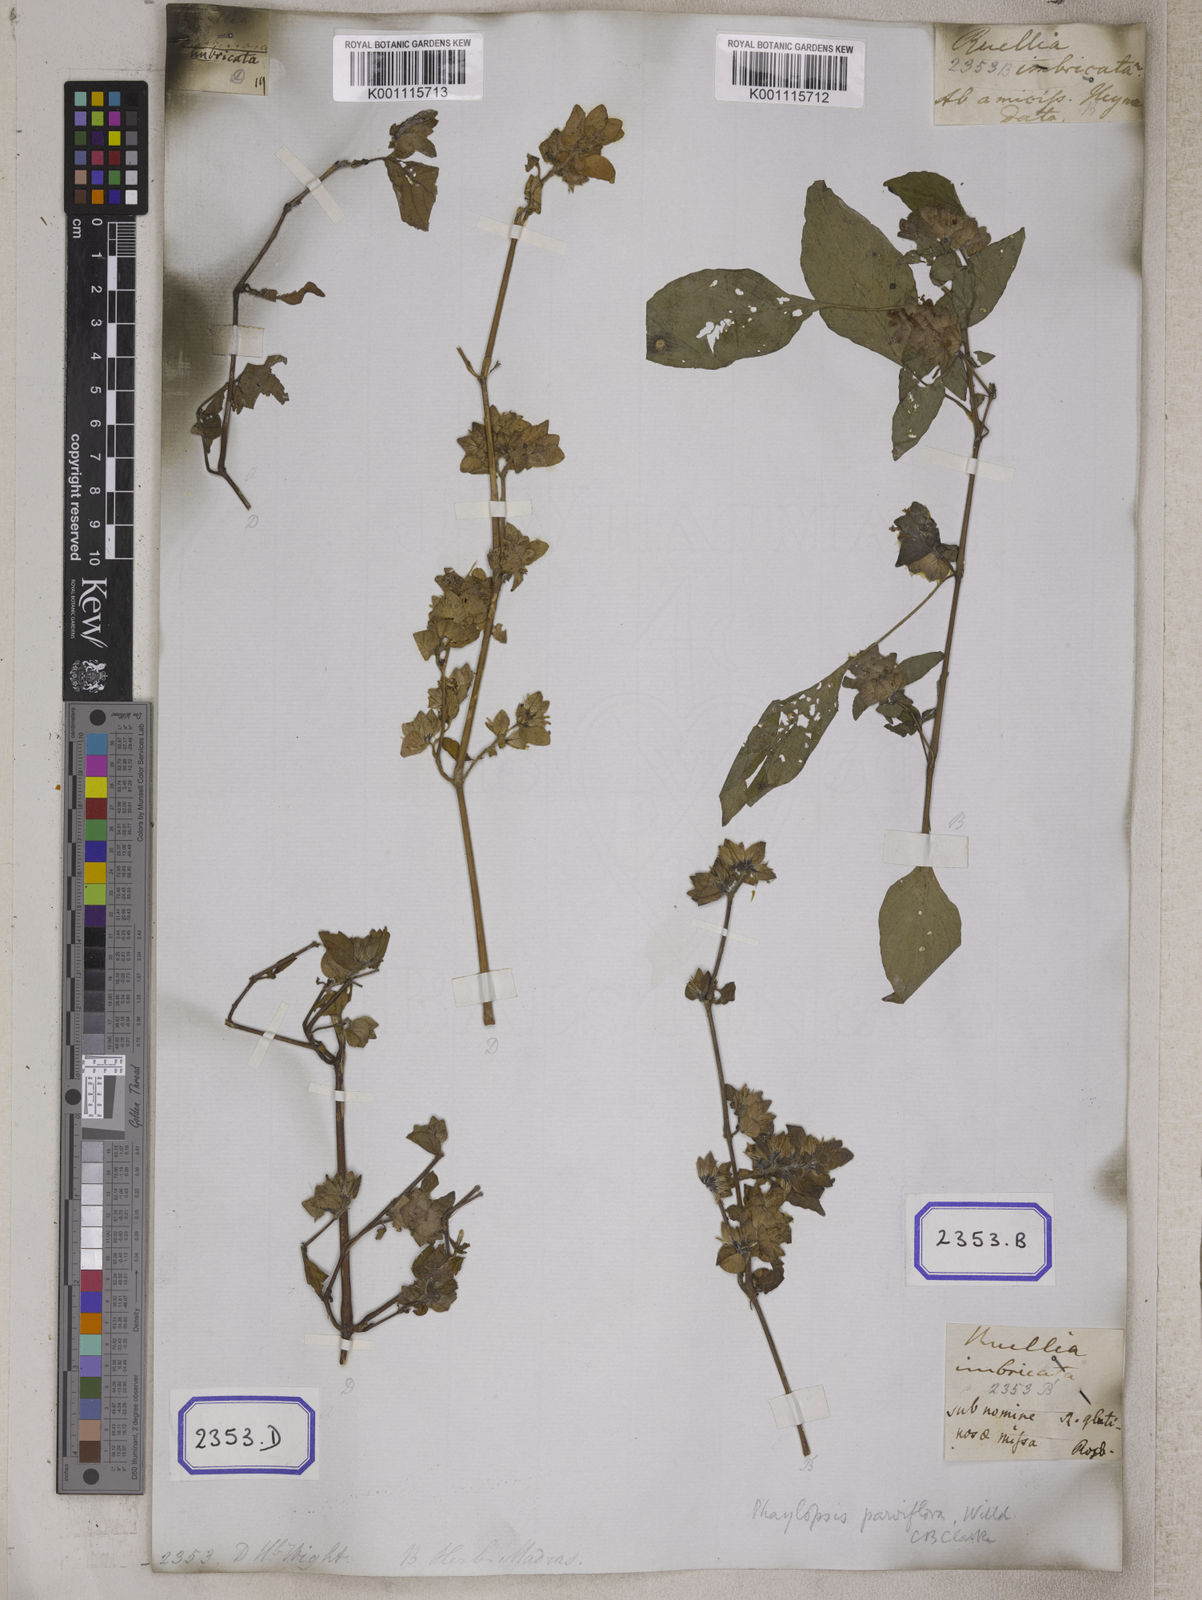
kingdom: Plantae
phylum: Tracheophyta
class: Magnoliopsida
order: Lamiales
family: Acanthaceae
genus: Phaulopsis
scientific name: Phaulopsis imbricata
